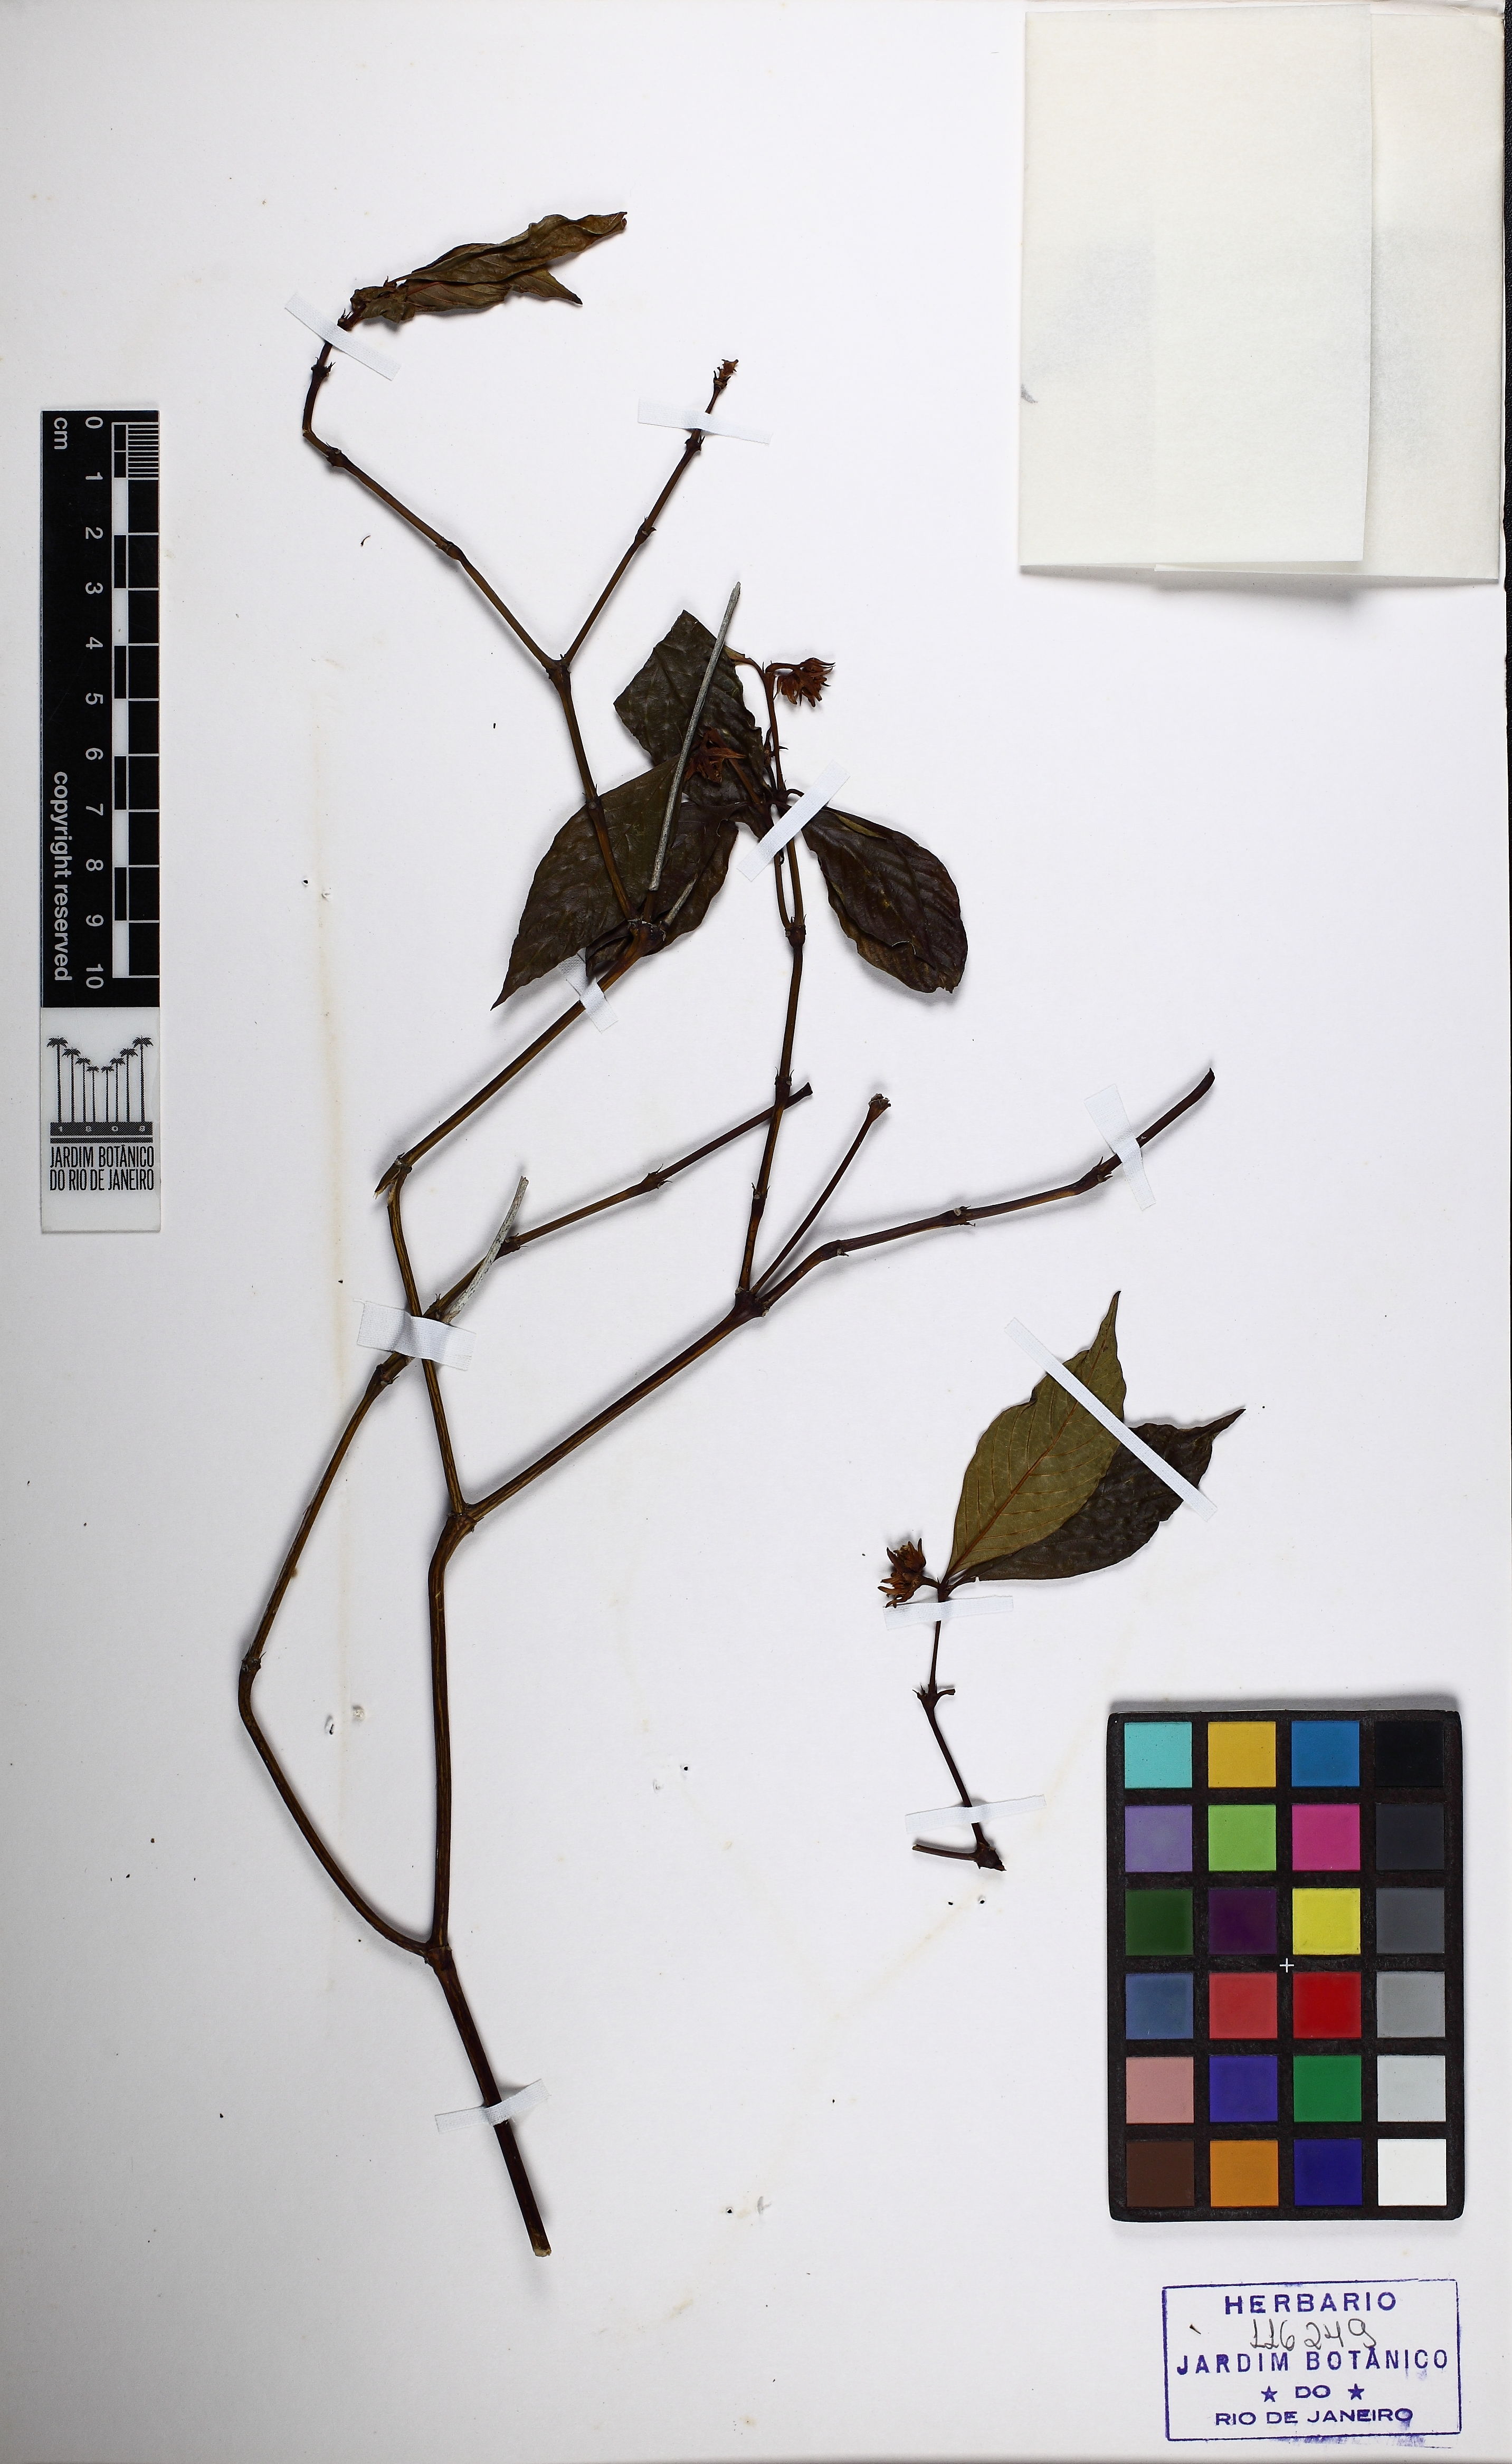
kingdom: Plantae
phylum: Tracheophyta
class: Magnoliopsida
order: Gentianales
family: Rubiaceae
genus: Palicourea
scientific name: Palicourea hoffmannseggiana
